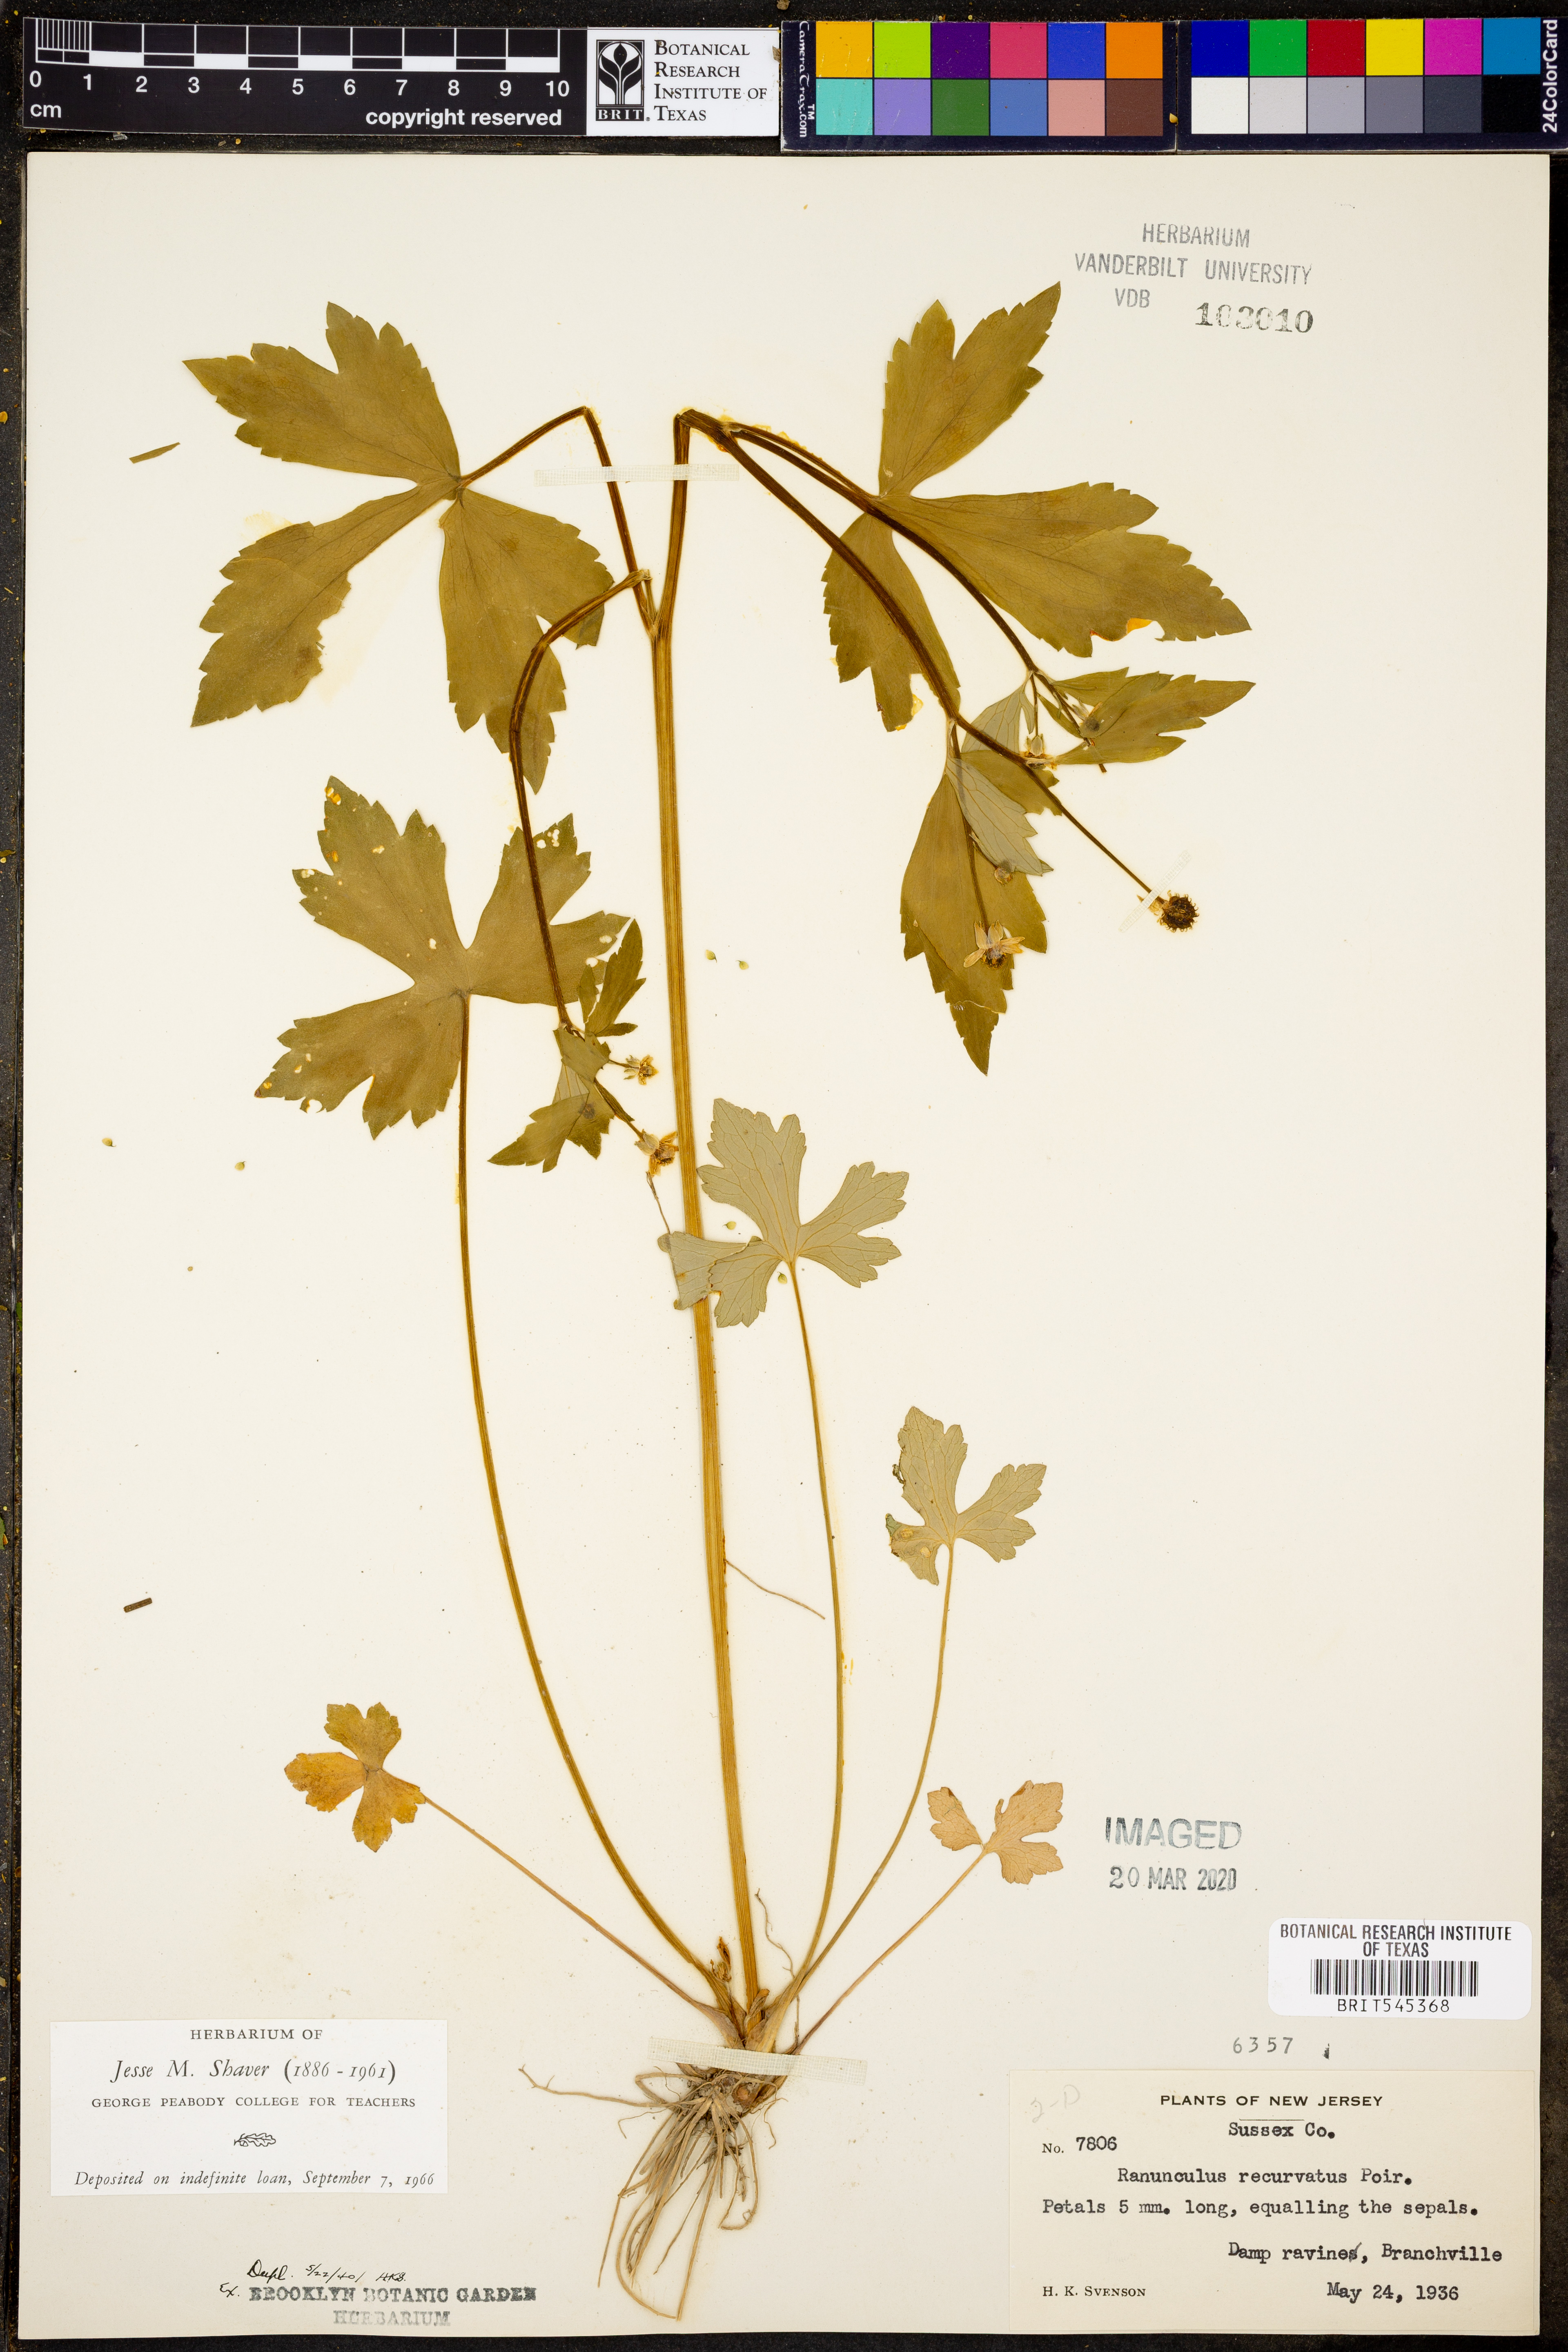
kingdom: Plantae
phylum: Tracheophyta
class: Magnoliopsida
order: Ranunculales
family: Ranunculaceae
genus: Ranunculus
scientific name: Ranunculus recurvatus
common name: Blisterwort
